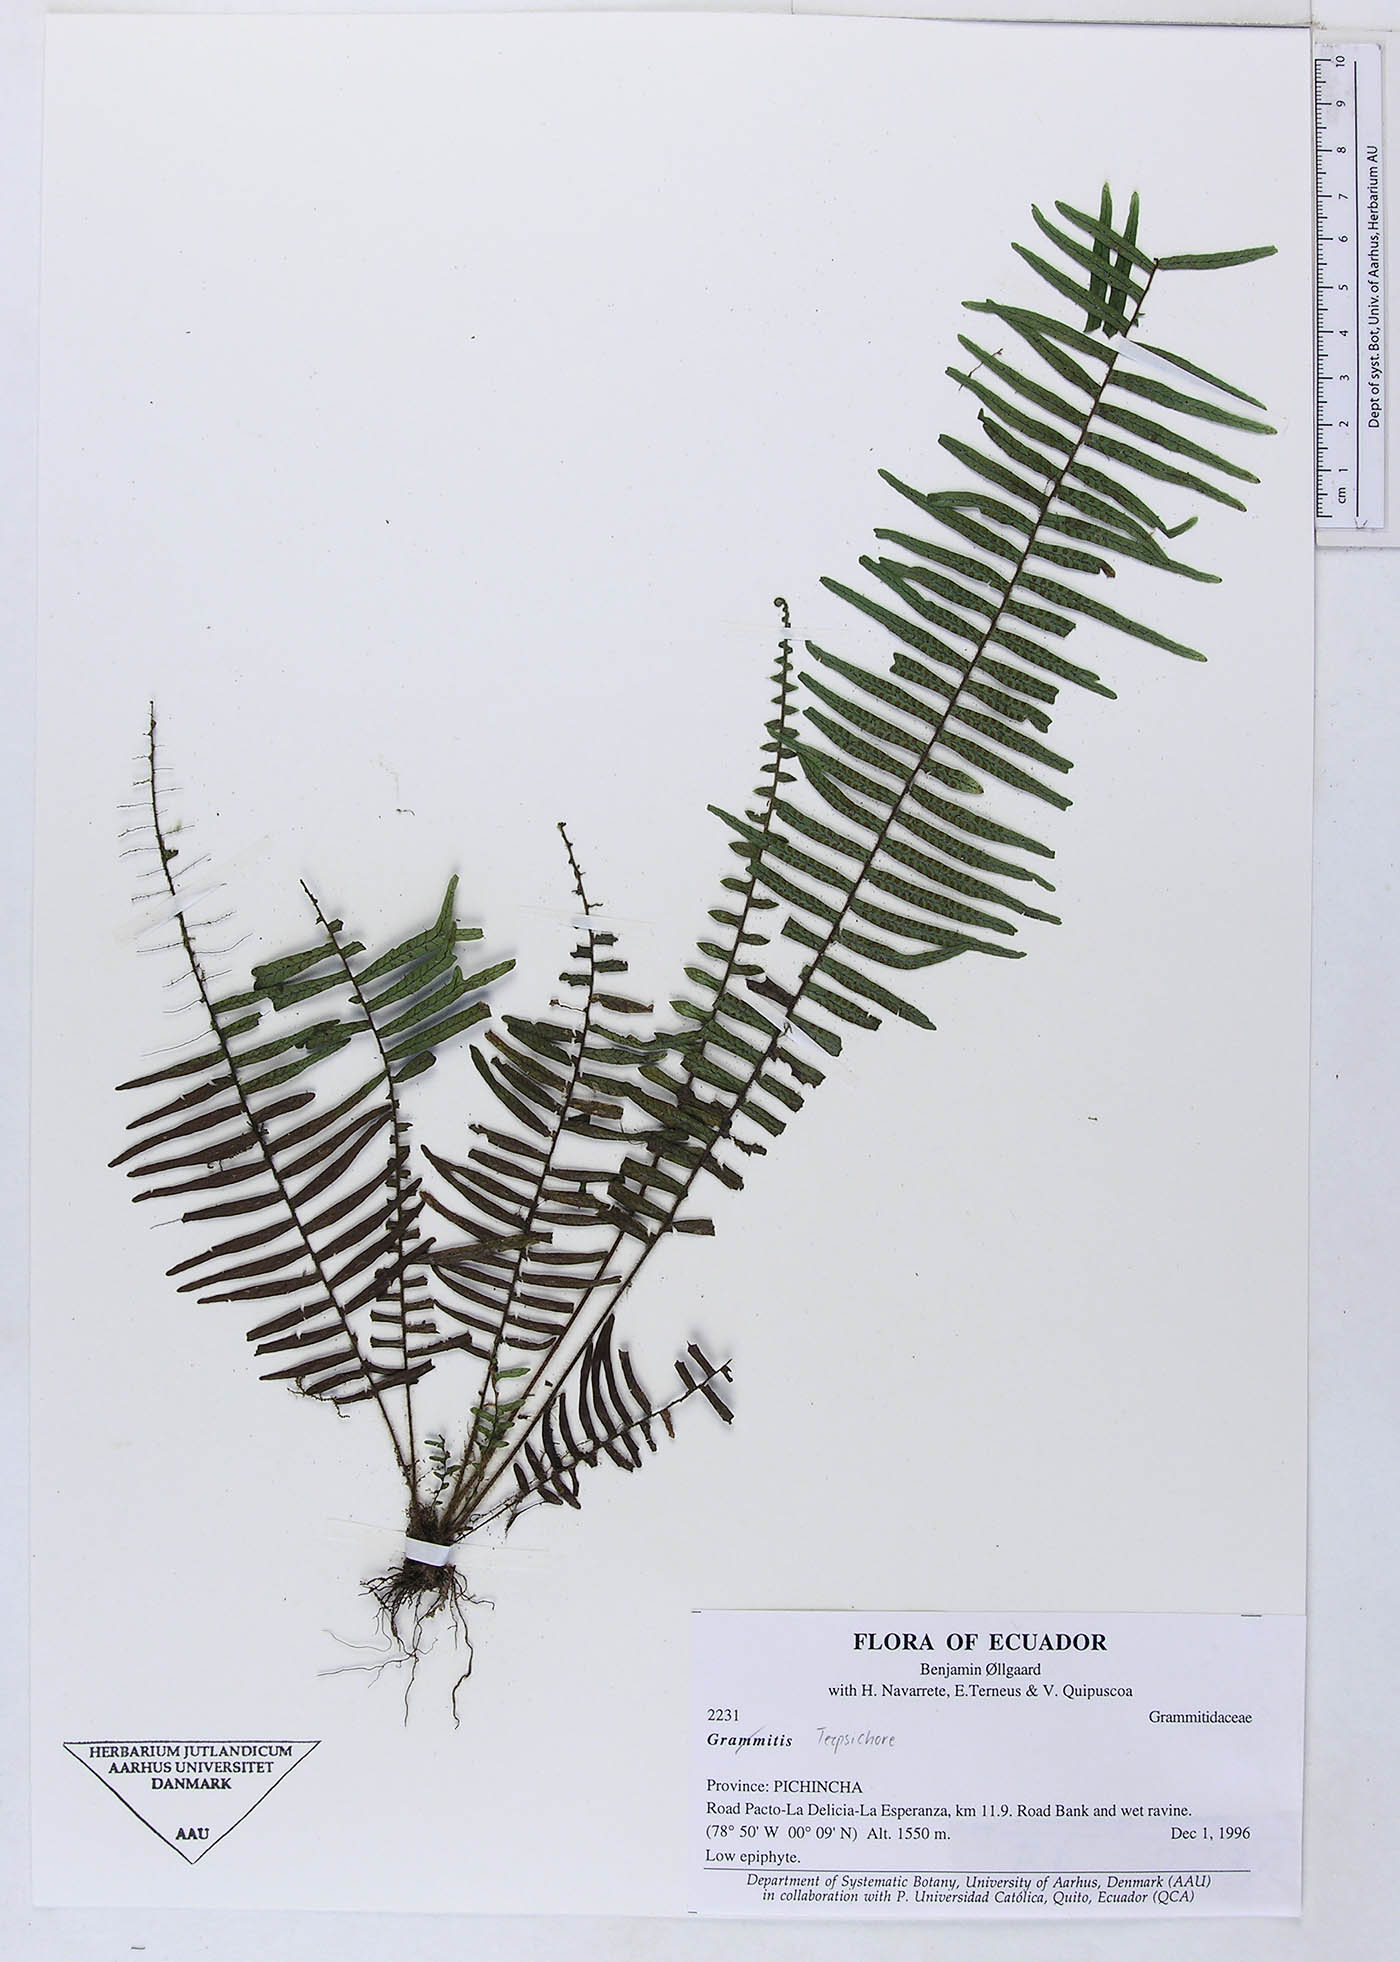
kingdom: Plantae
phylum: Tracheophyta
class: Polypodiopsida
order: Polypodiales
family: Polypodiaceae
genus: Grammitis
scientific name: Grammitis
